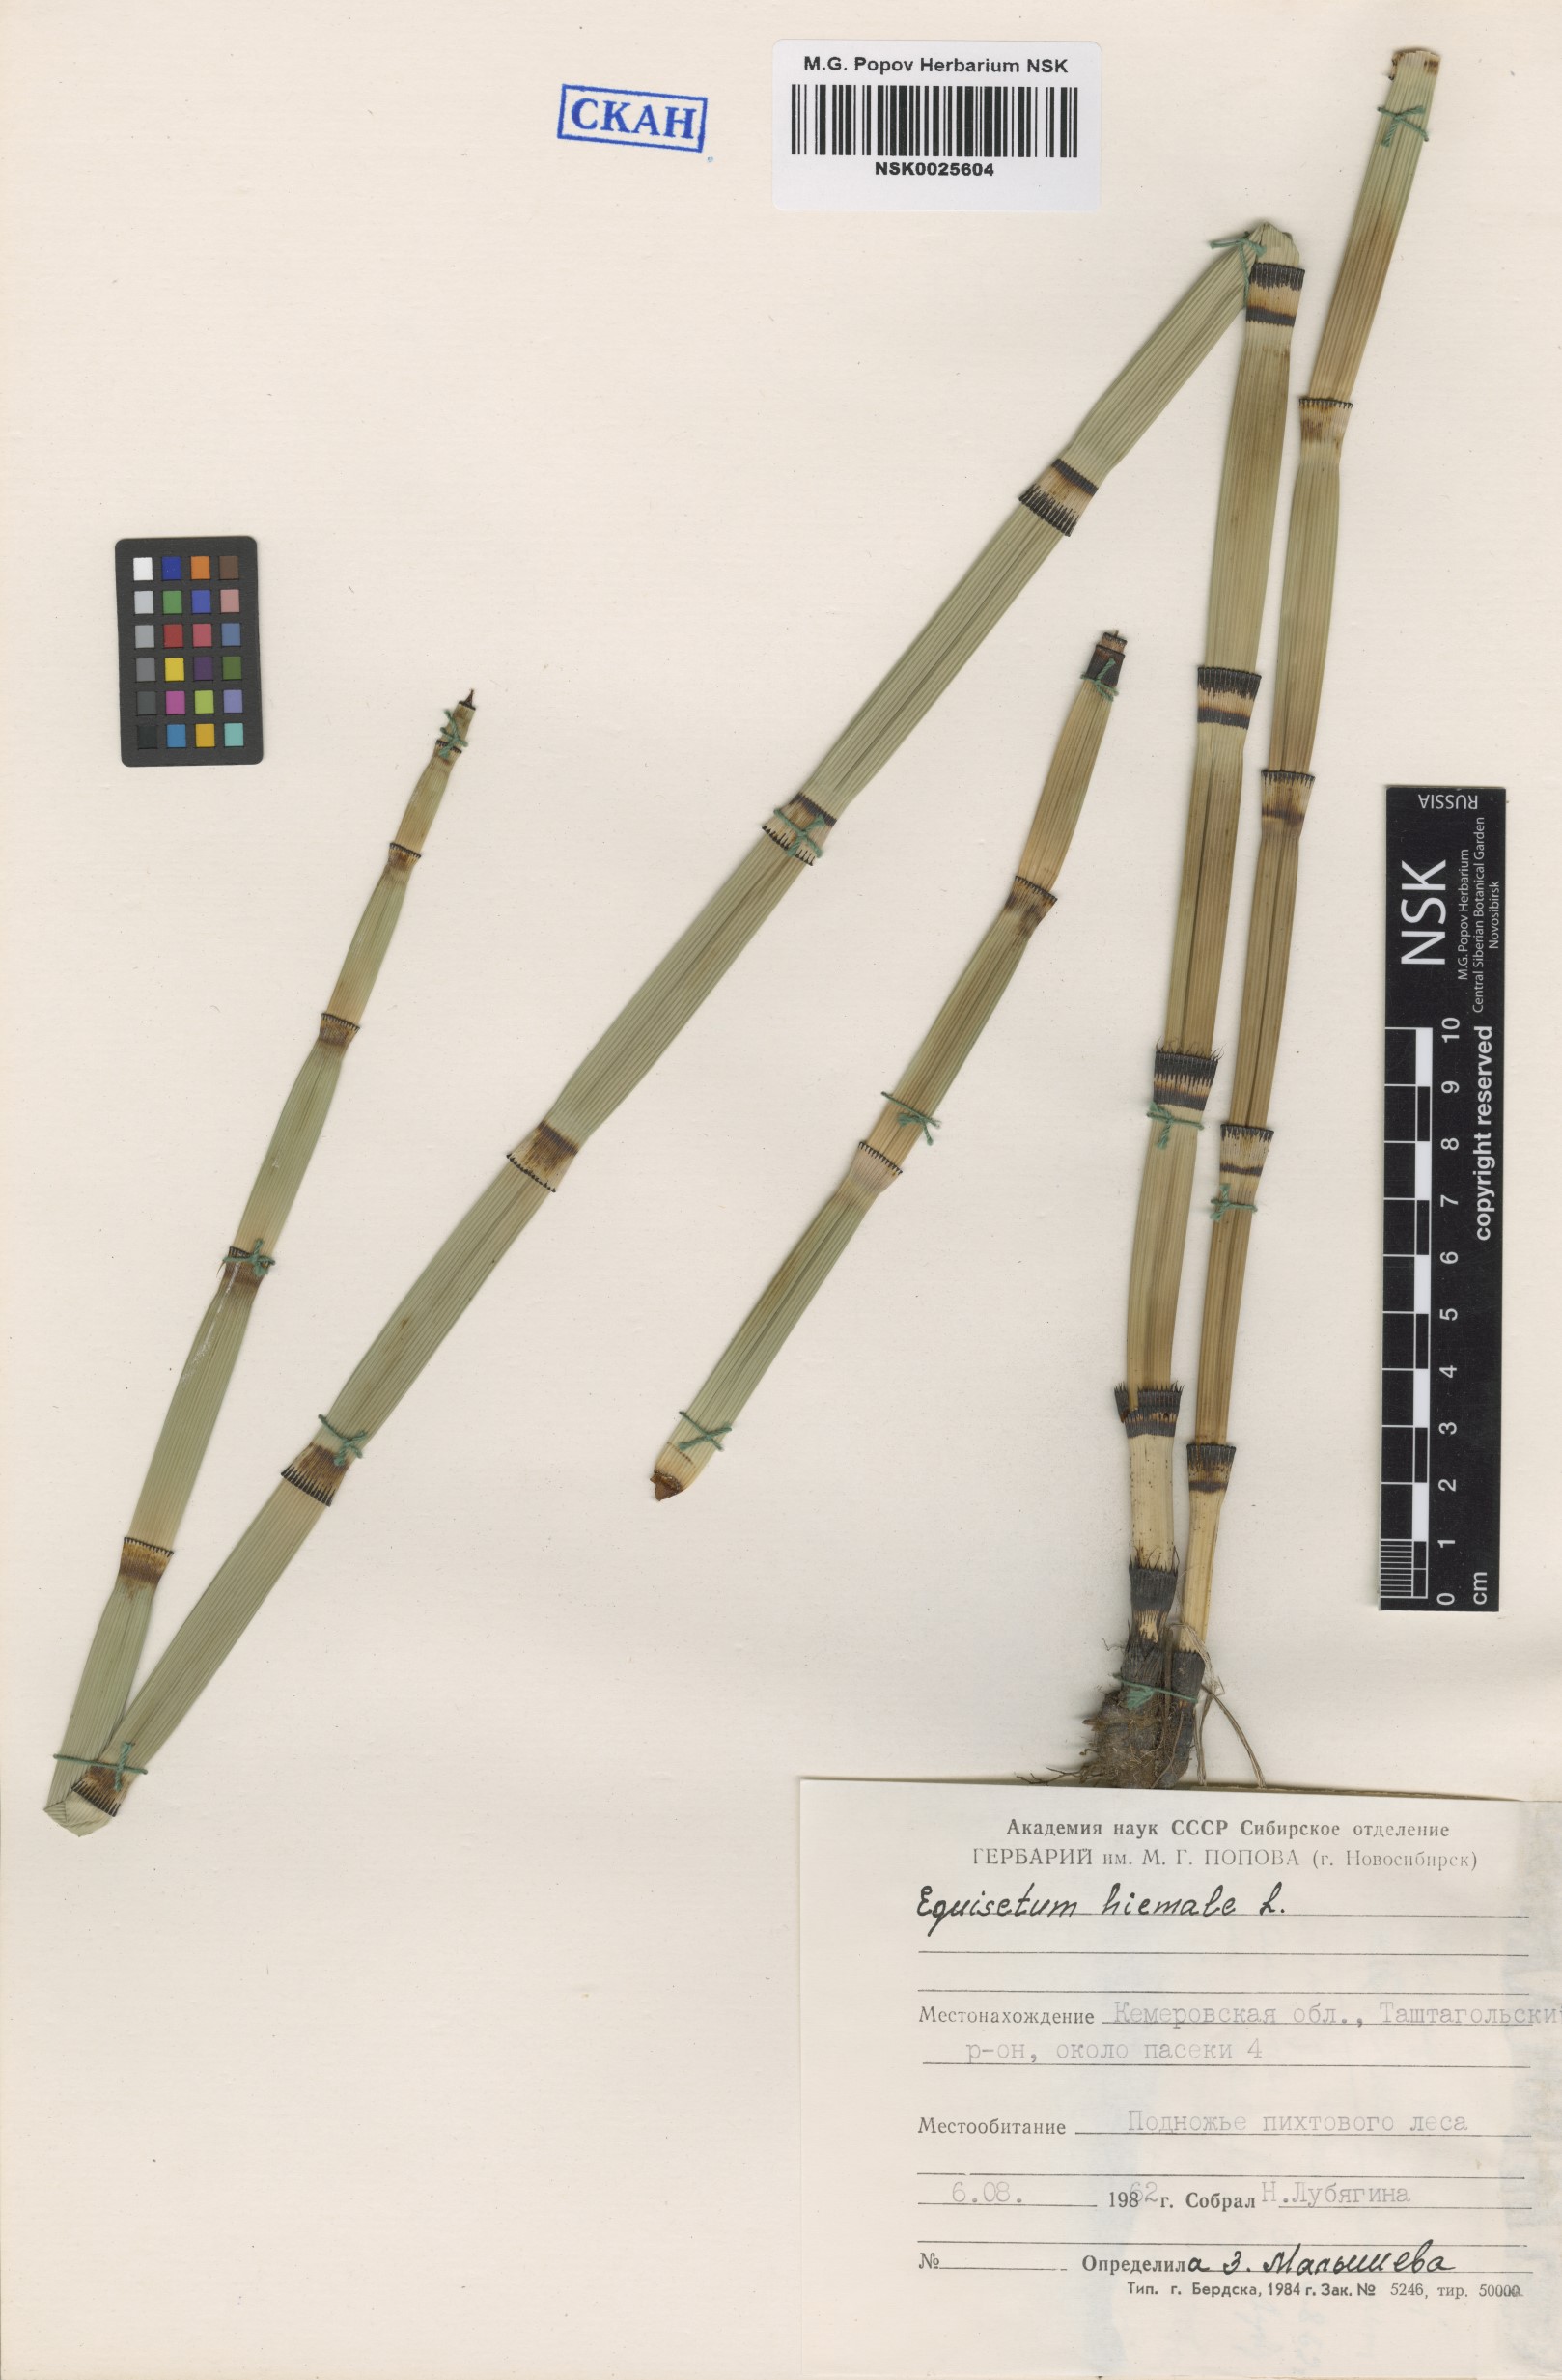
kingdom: Plantae
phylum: Tracheophyta
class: Polypodiopsida
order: Equisetales
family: Equisetaceae
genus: Equisetum
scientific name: Equisetum hyemale
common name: Rough horsetail
